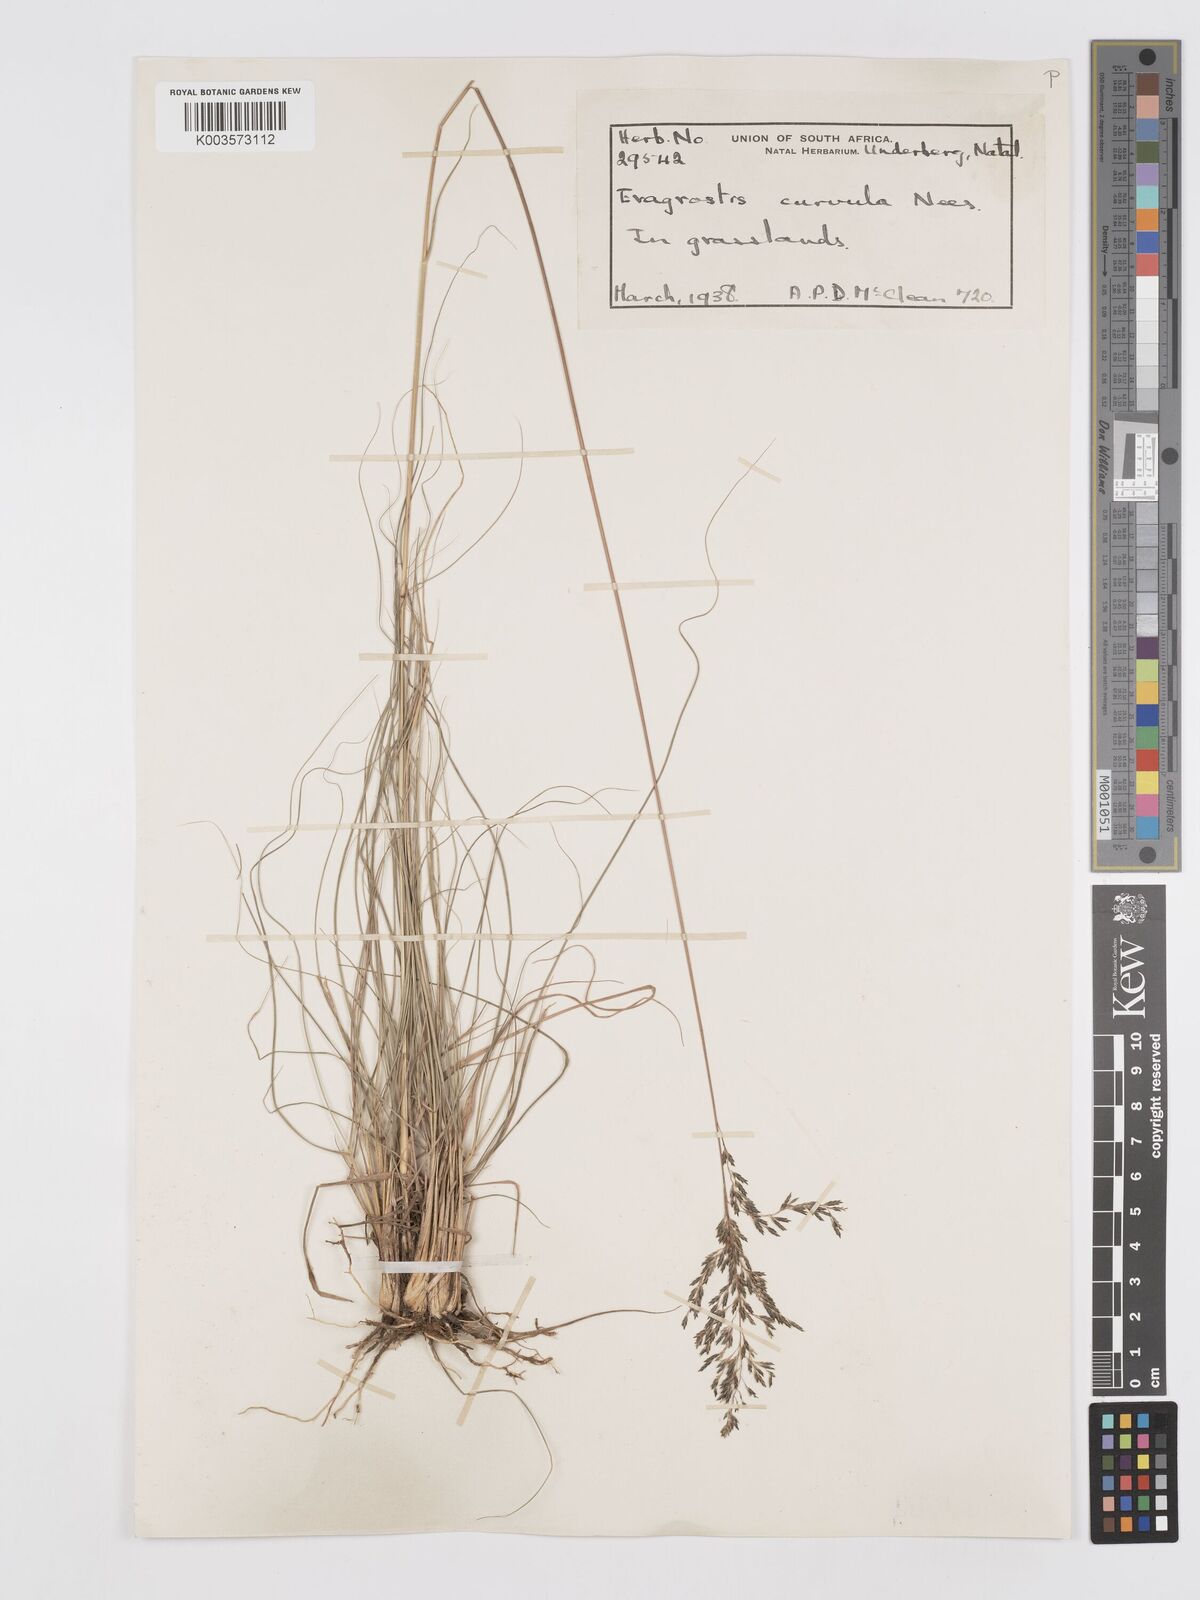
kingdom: Plantae
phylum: Tracheophyta
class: Liliopsida
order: Poales
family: Poaceae
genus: Eragrostis
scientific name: Eragrostis curvula
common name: African love-grass
